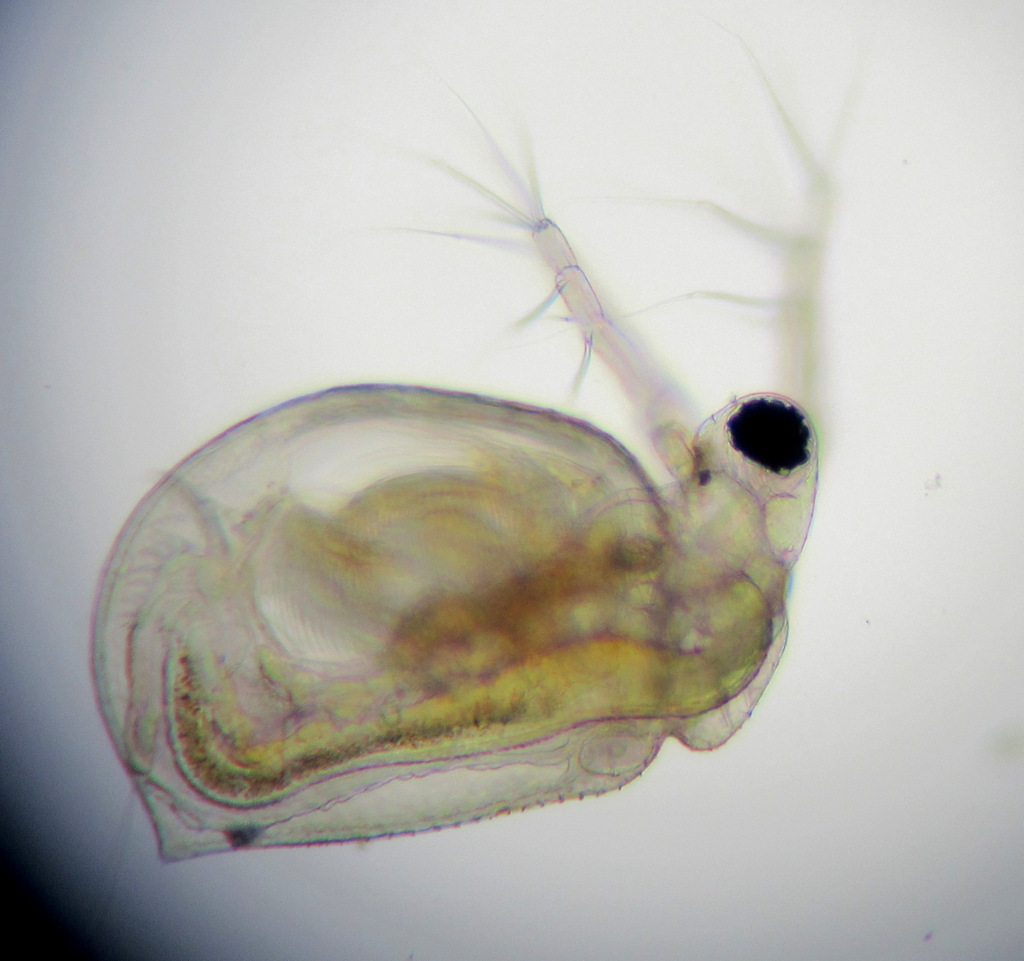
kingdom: Animalia
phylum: Arthropoda
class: Branchiopoda
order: Diplostraca
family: Daphniidae
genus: Ceriodaphnia
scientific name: Ceriodaphnia quadrangula
